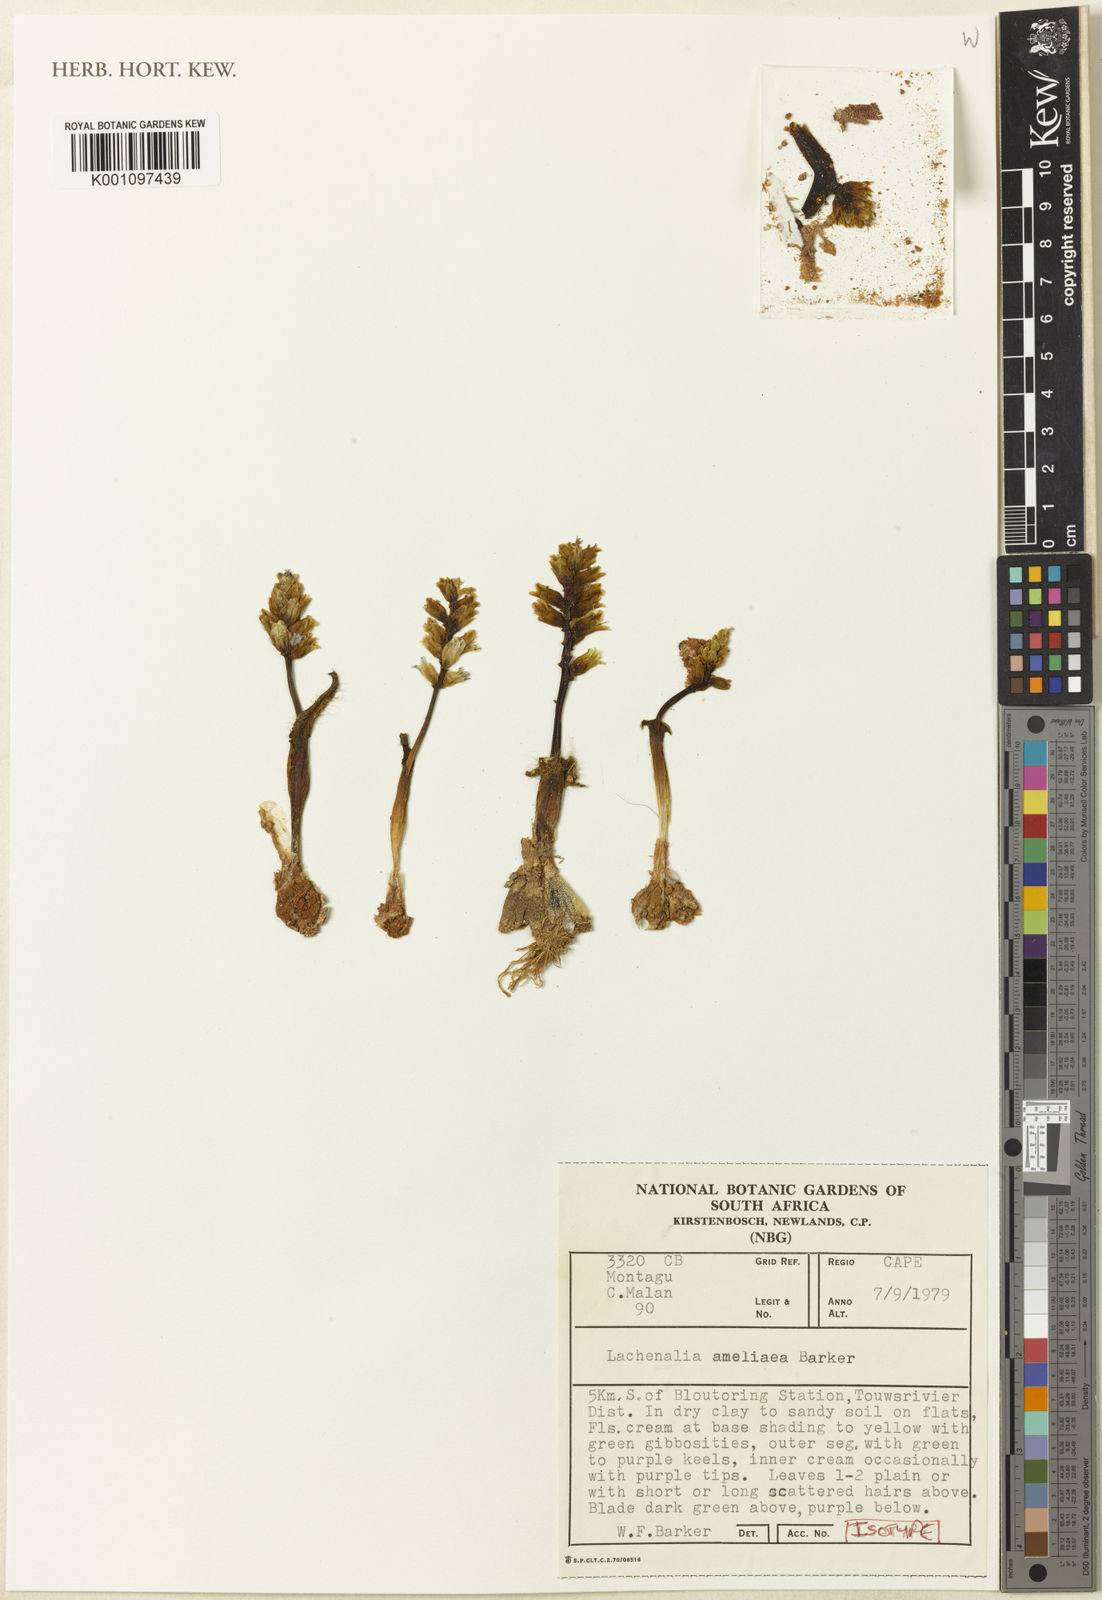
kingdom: Plantae
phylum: Tracheophyta
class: Liliopsida
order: Asparagales
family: Asparagaceae
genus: Lachenalia
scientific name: Lachenalia ameliae
